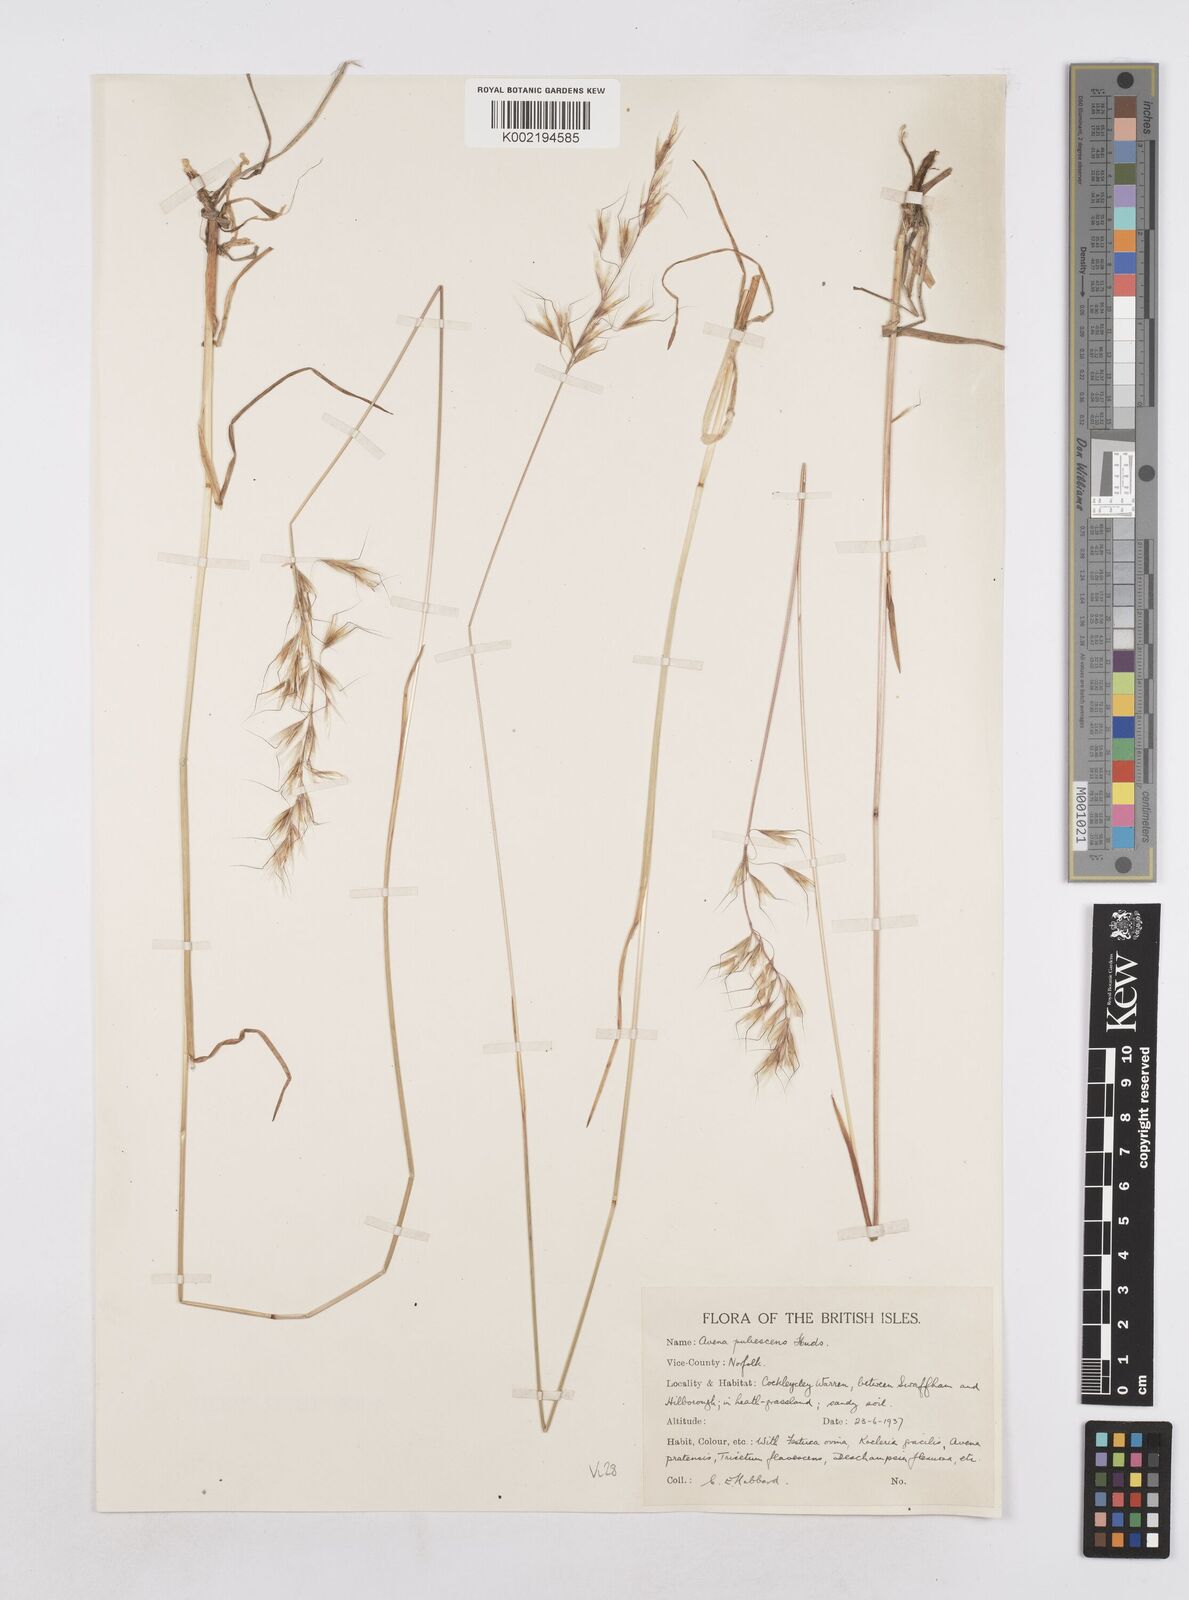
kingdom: Plantae
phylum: Tracheophyta
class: Liliopsida
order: Poales
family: Poaceae
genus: Avenula
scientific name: Avenula pubescens
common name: Downy alpine oatgrass
